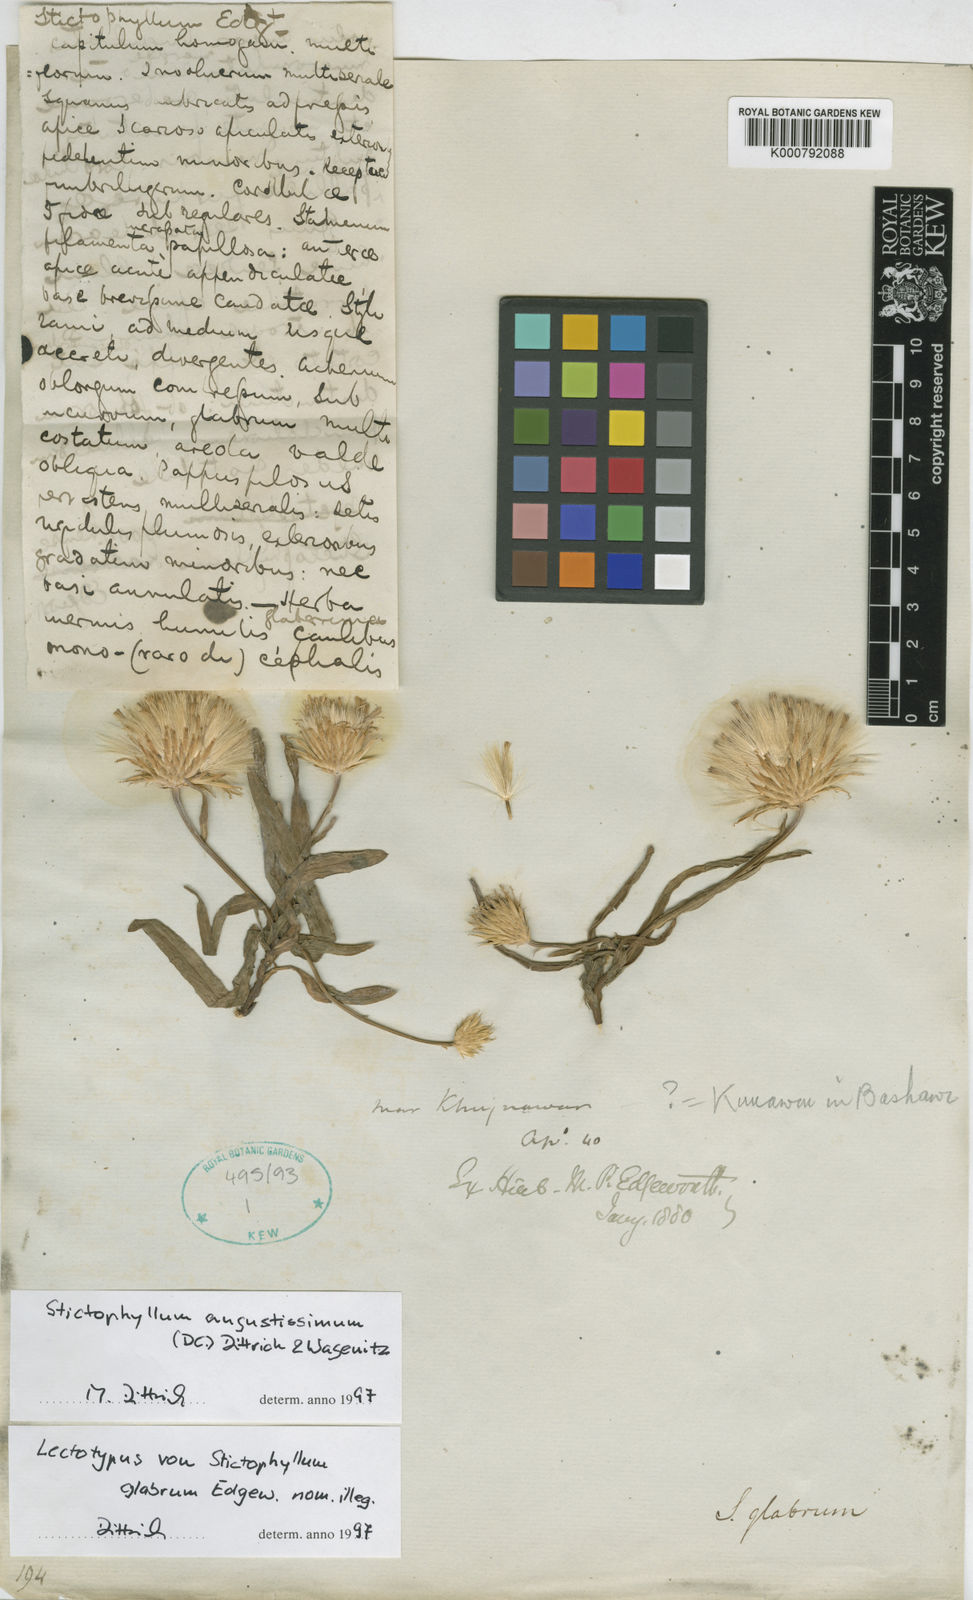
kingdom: Plantae
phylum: Tracheophyta
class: Magnoliopsida
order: Asterales
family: Asteraceae
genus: Tricholepis
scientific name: Tricholepis stictophyllum
